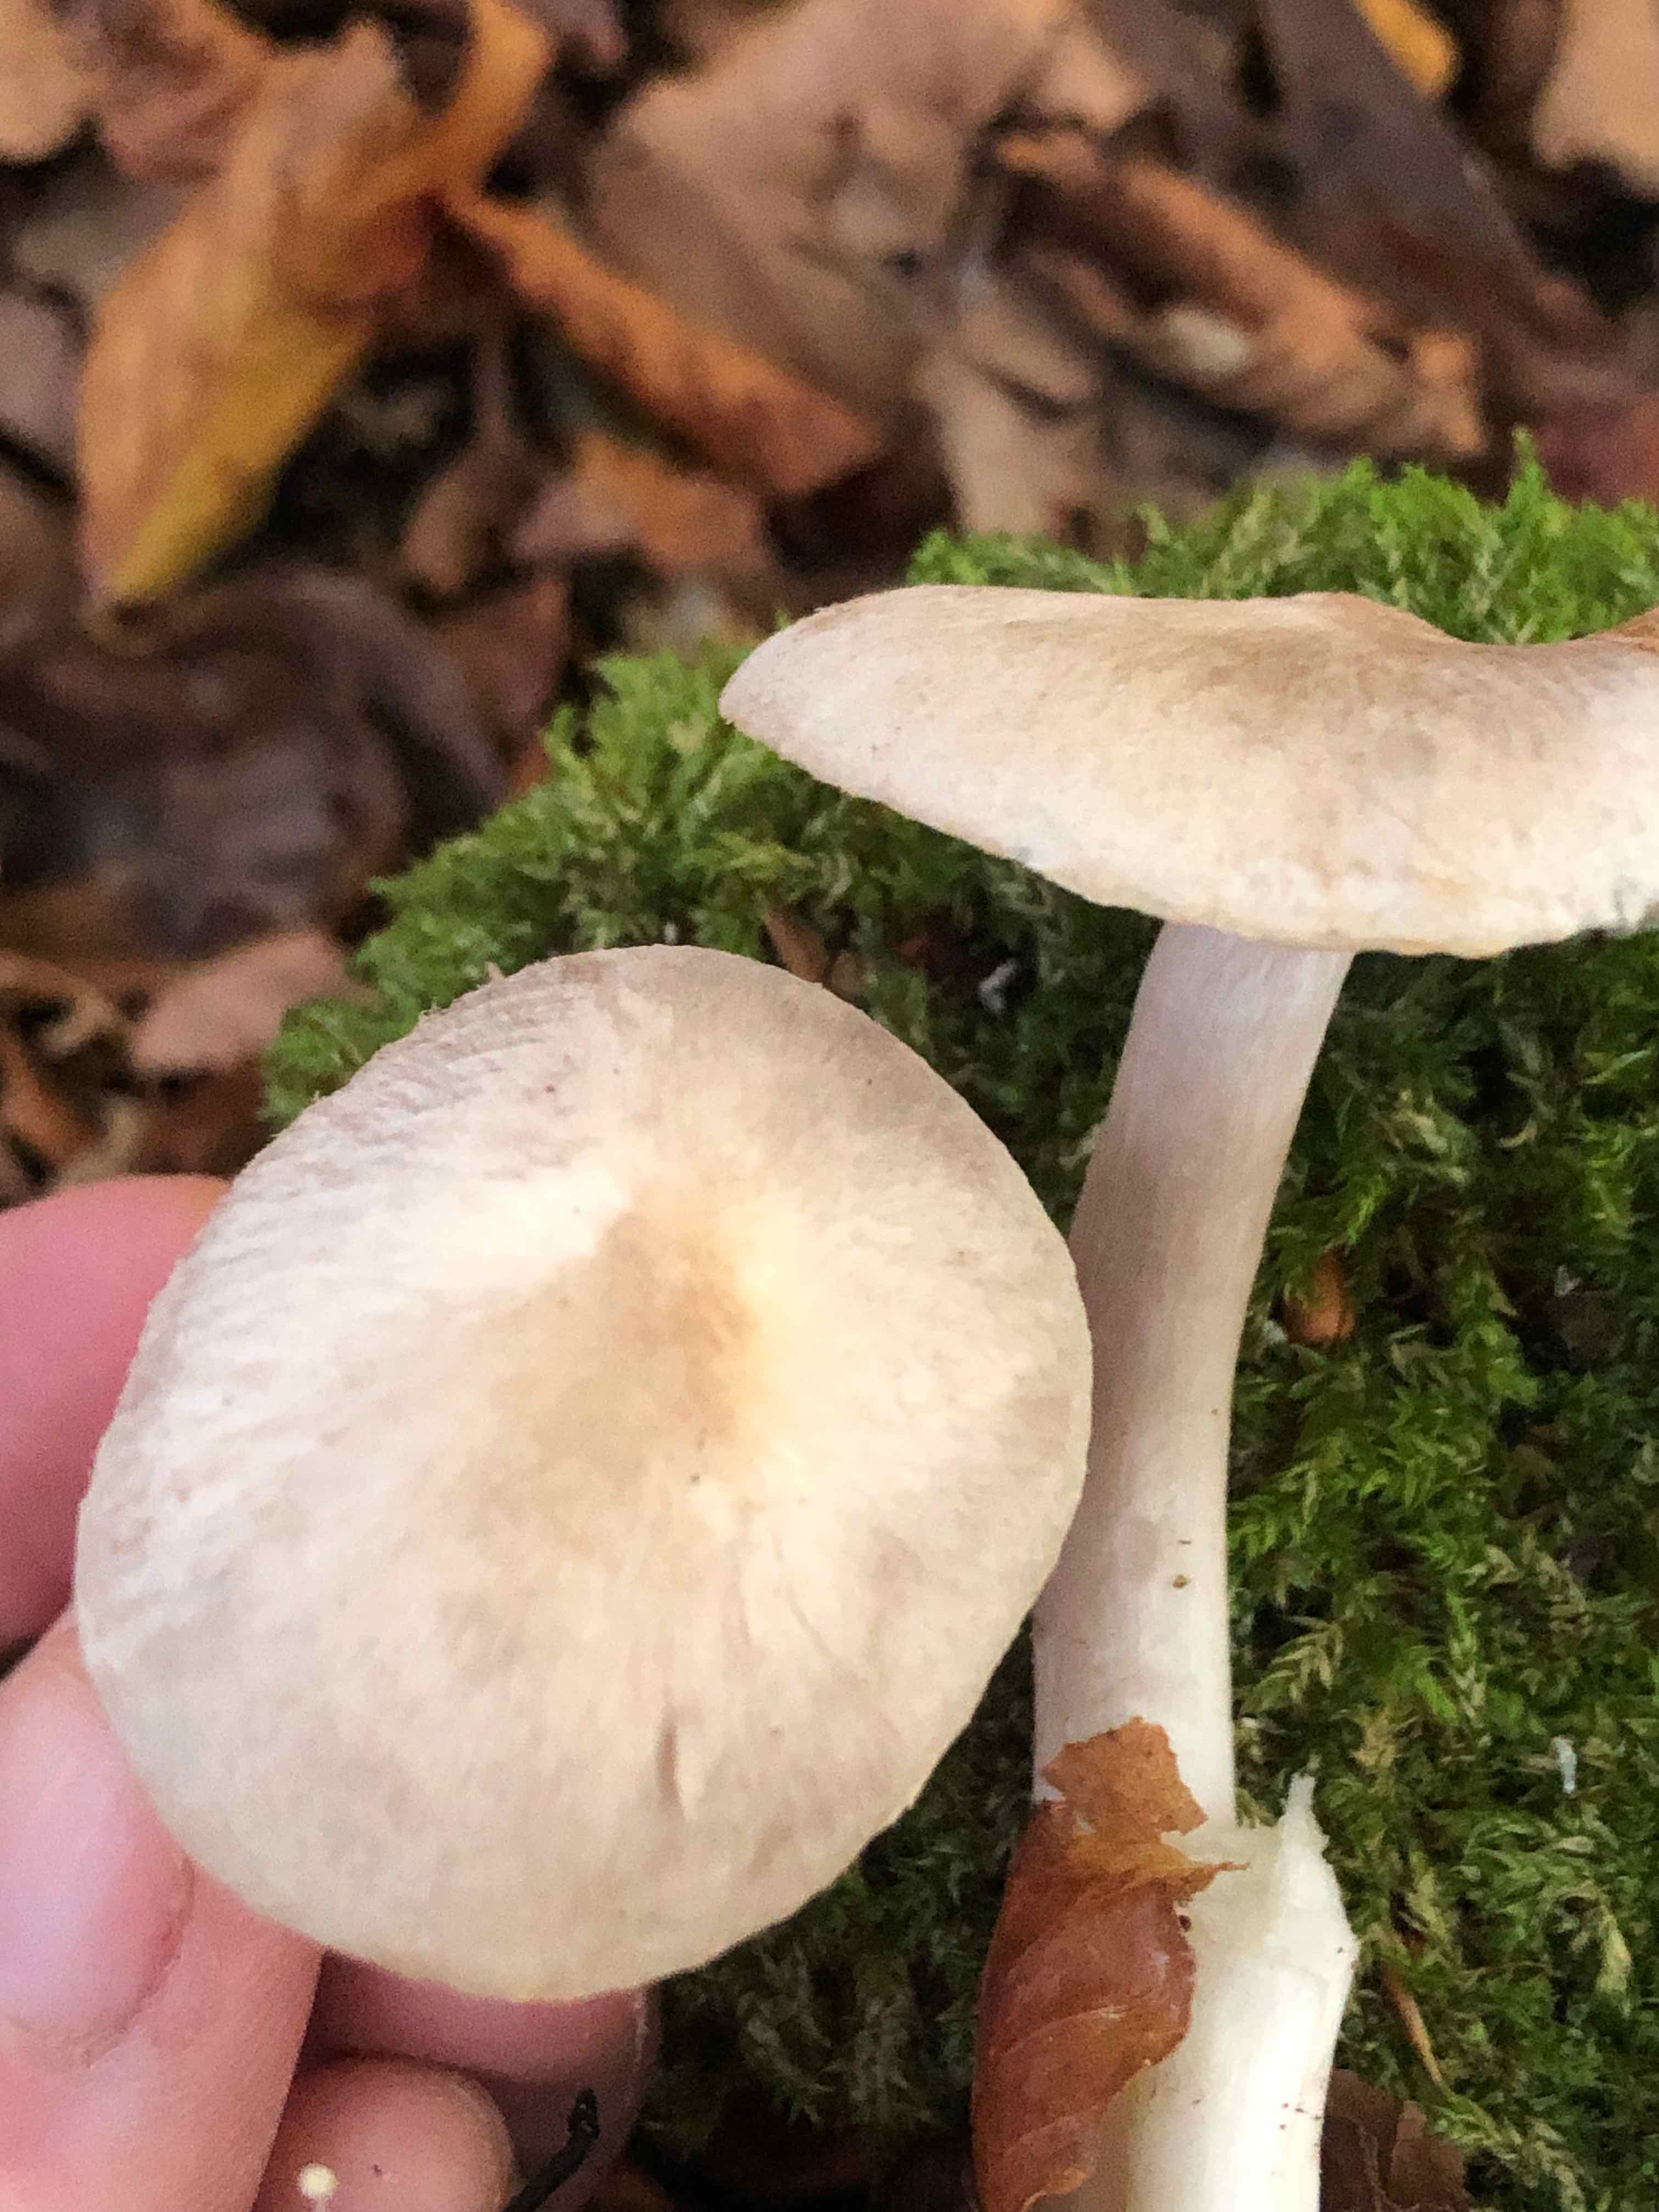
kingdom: Fungi
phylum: Basidiomycota
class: Agaricomycetes
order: Agaricales
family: Tricholomataceae
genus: Tricholoma
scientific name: Tricholoma
